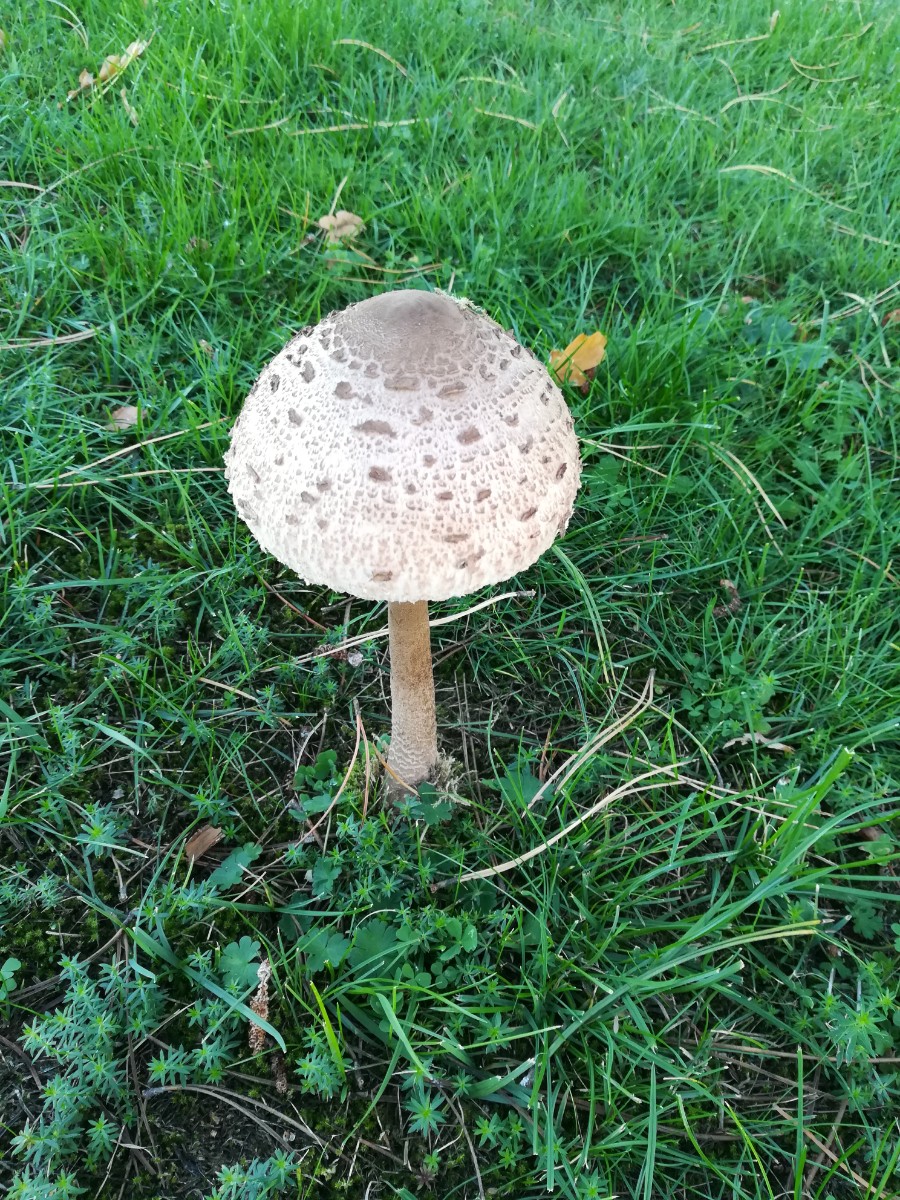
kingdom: Fungi
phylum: Basidiomycota
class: Agaricomycetes
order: Agaricales
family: Agaricaceae
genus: Macrolepiota
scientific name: Macrolepiota procera
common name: stor kæmpeparasolhat
